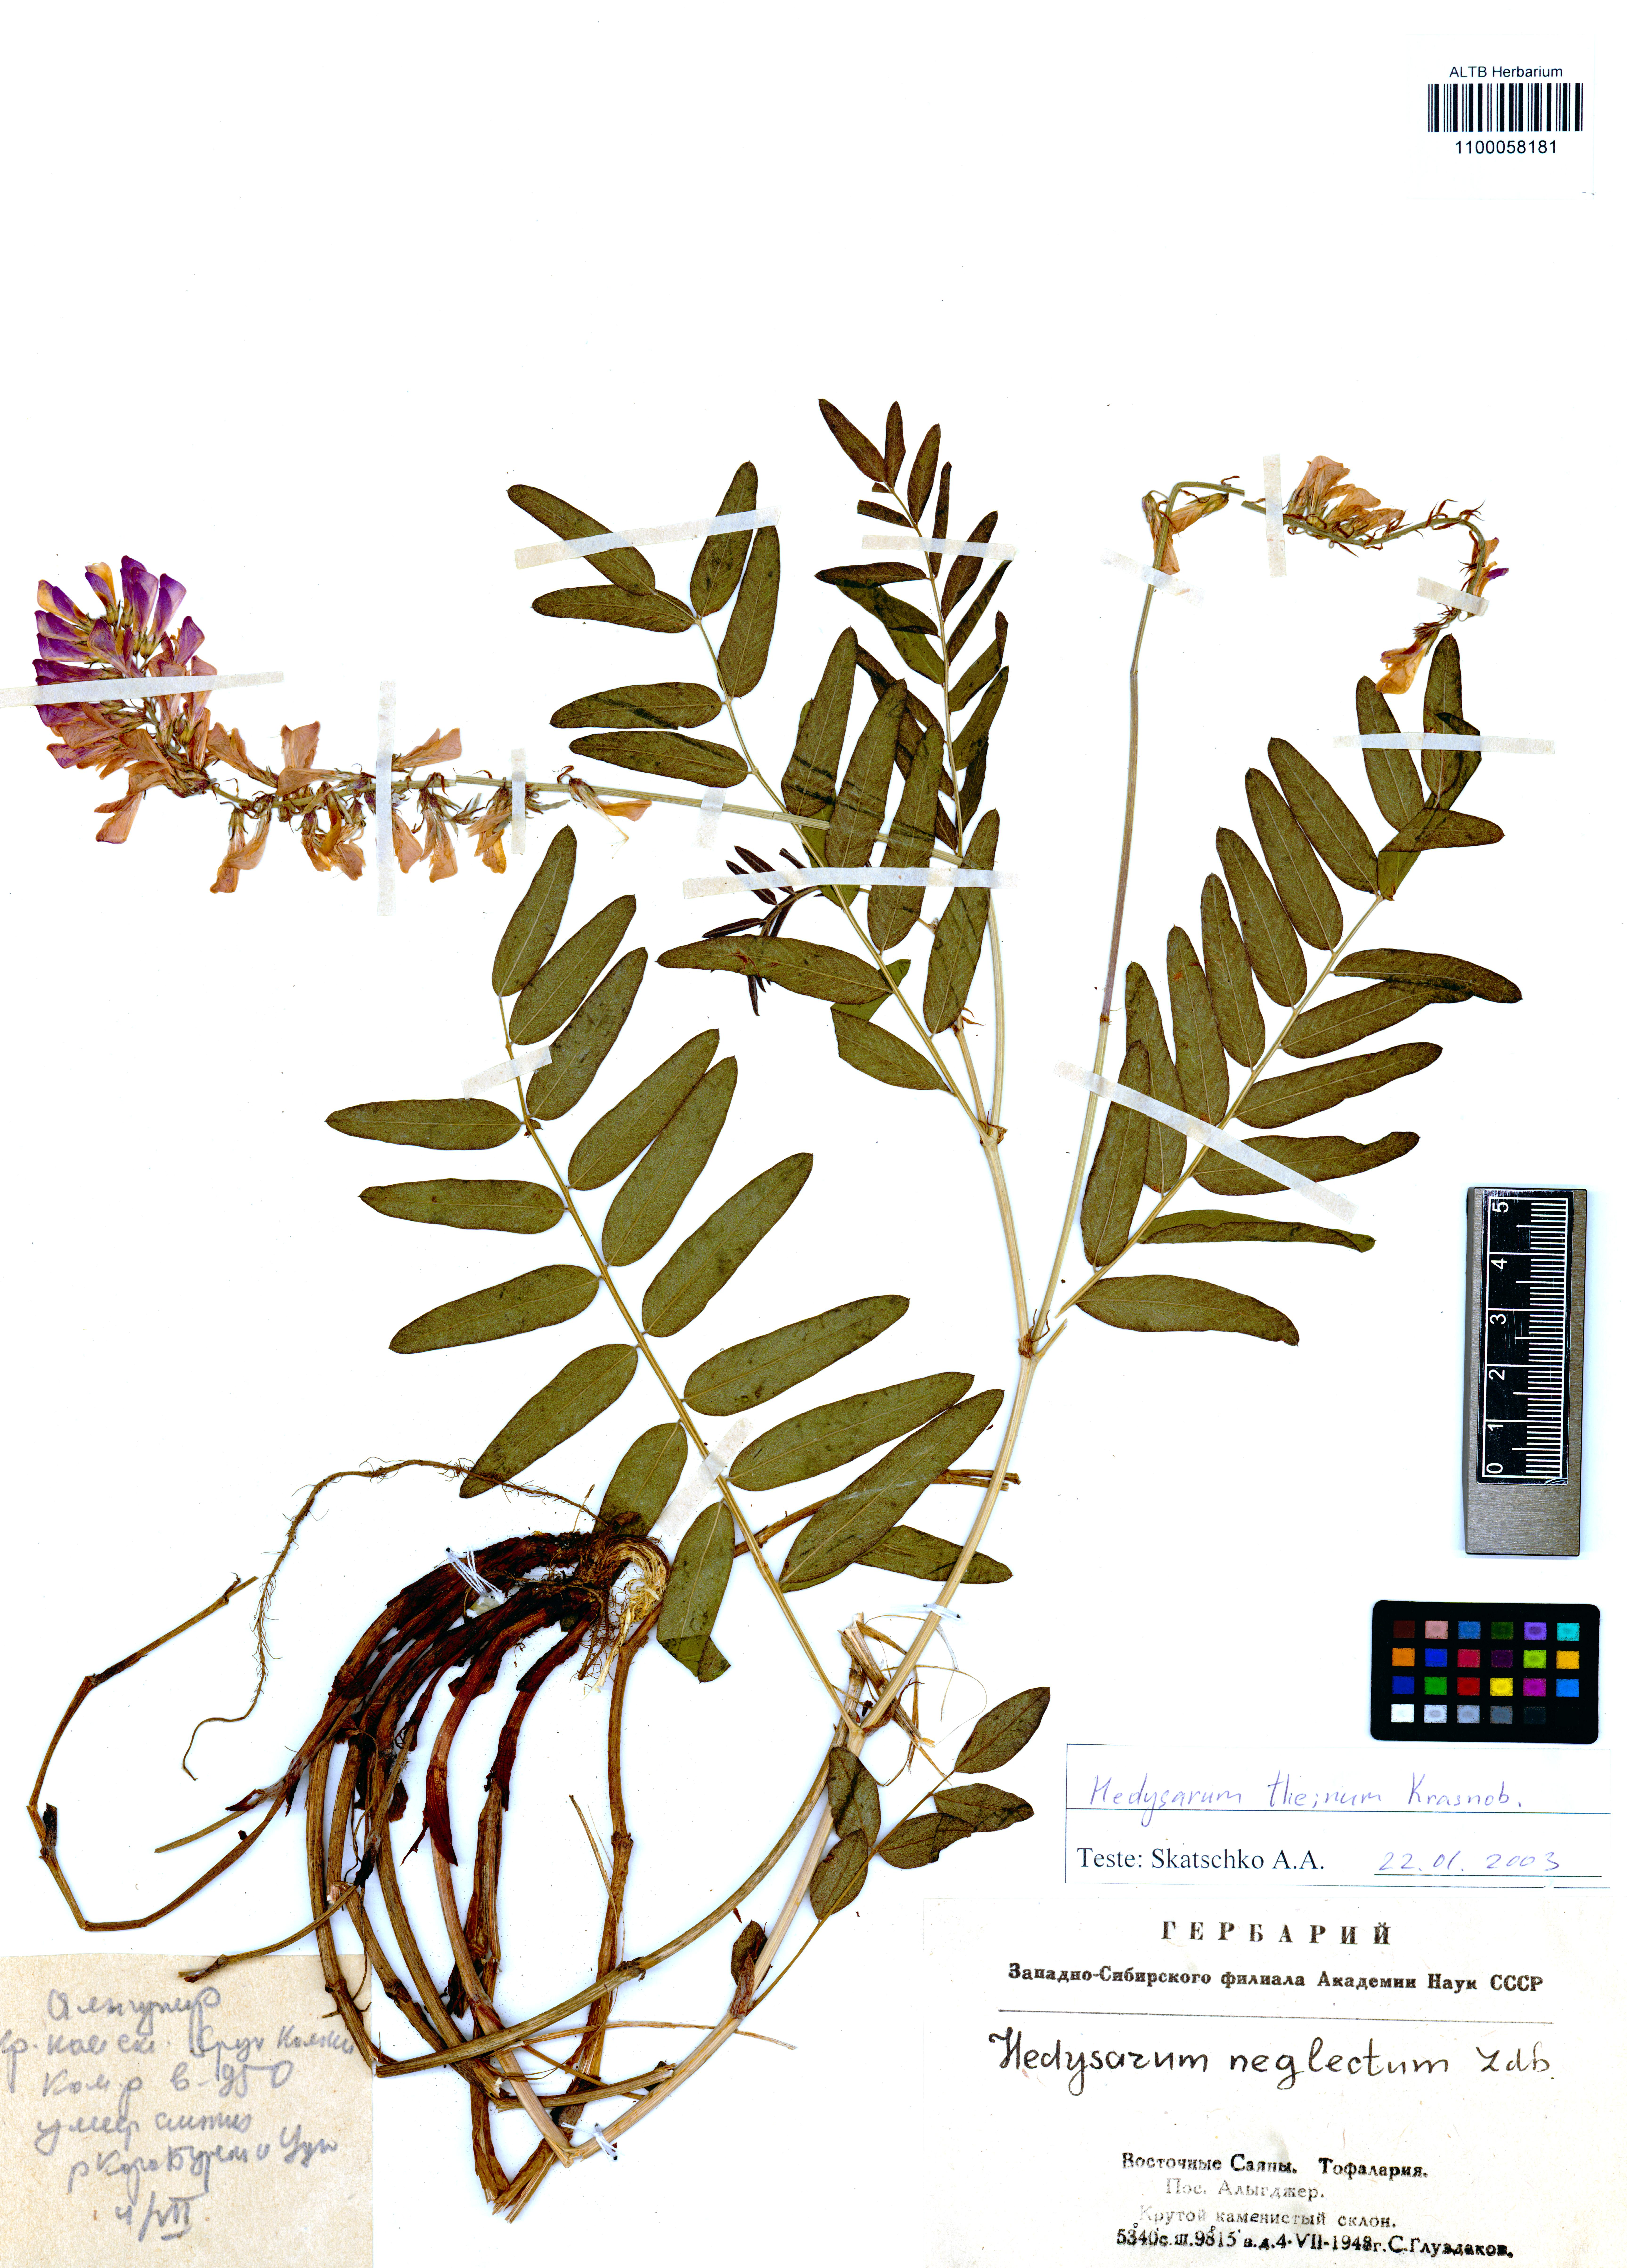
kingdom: Plantae
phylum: Tracheophyta
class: Magnoliopsida
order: Fabales
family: Fabaceae
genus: Hedysarum
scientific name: Hedysarum theinum
